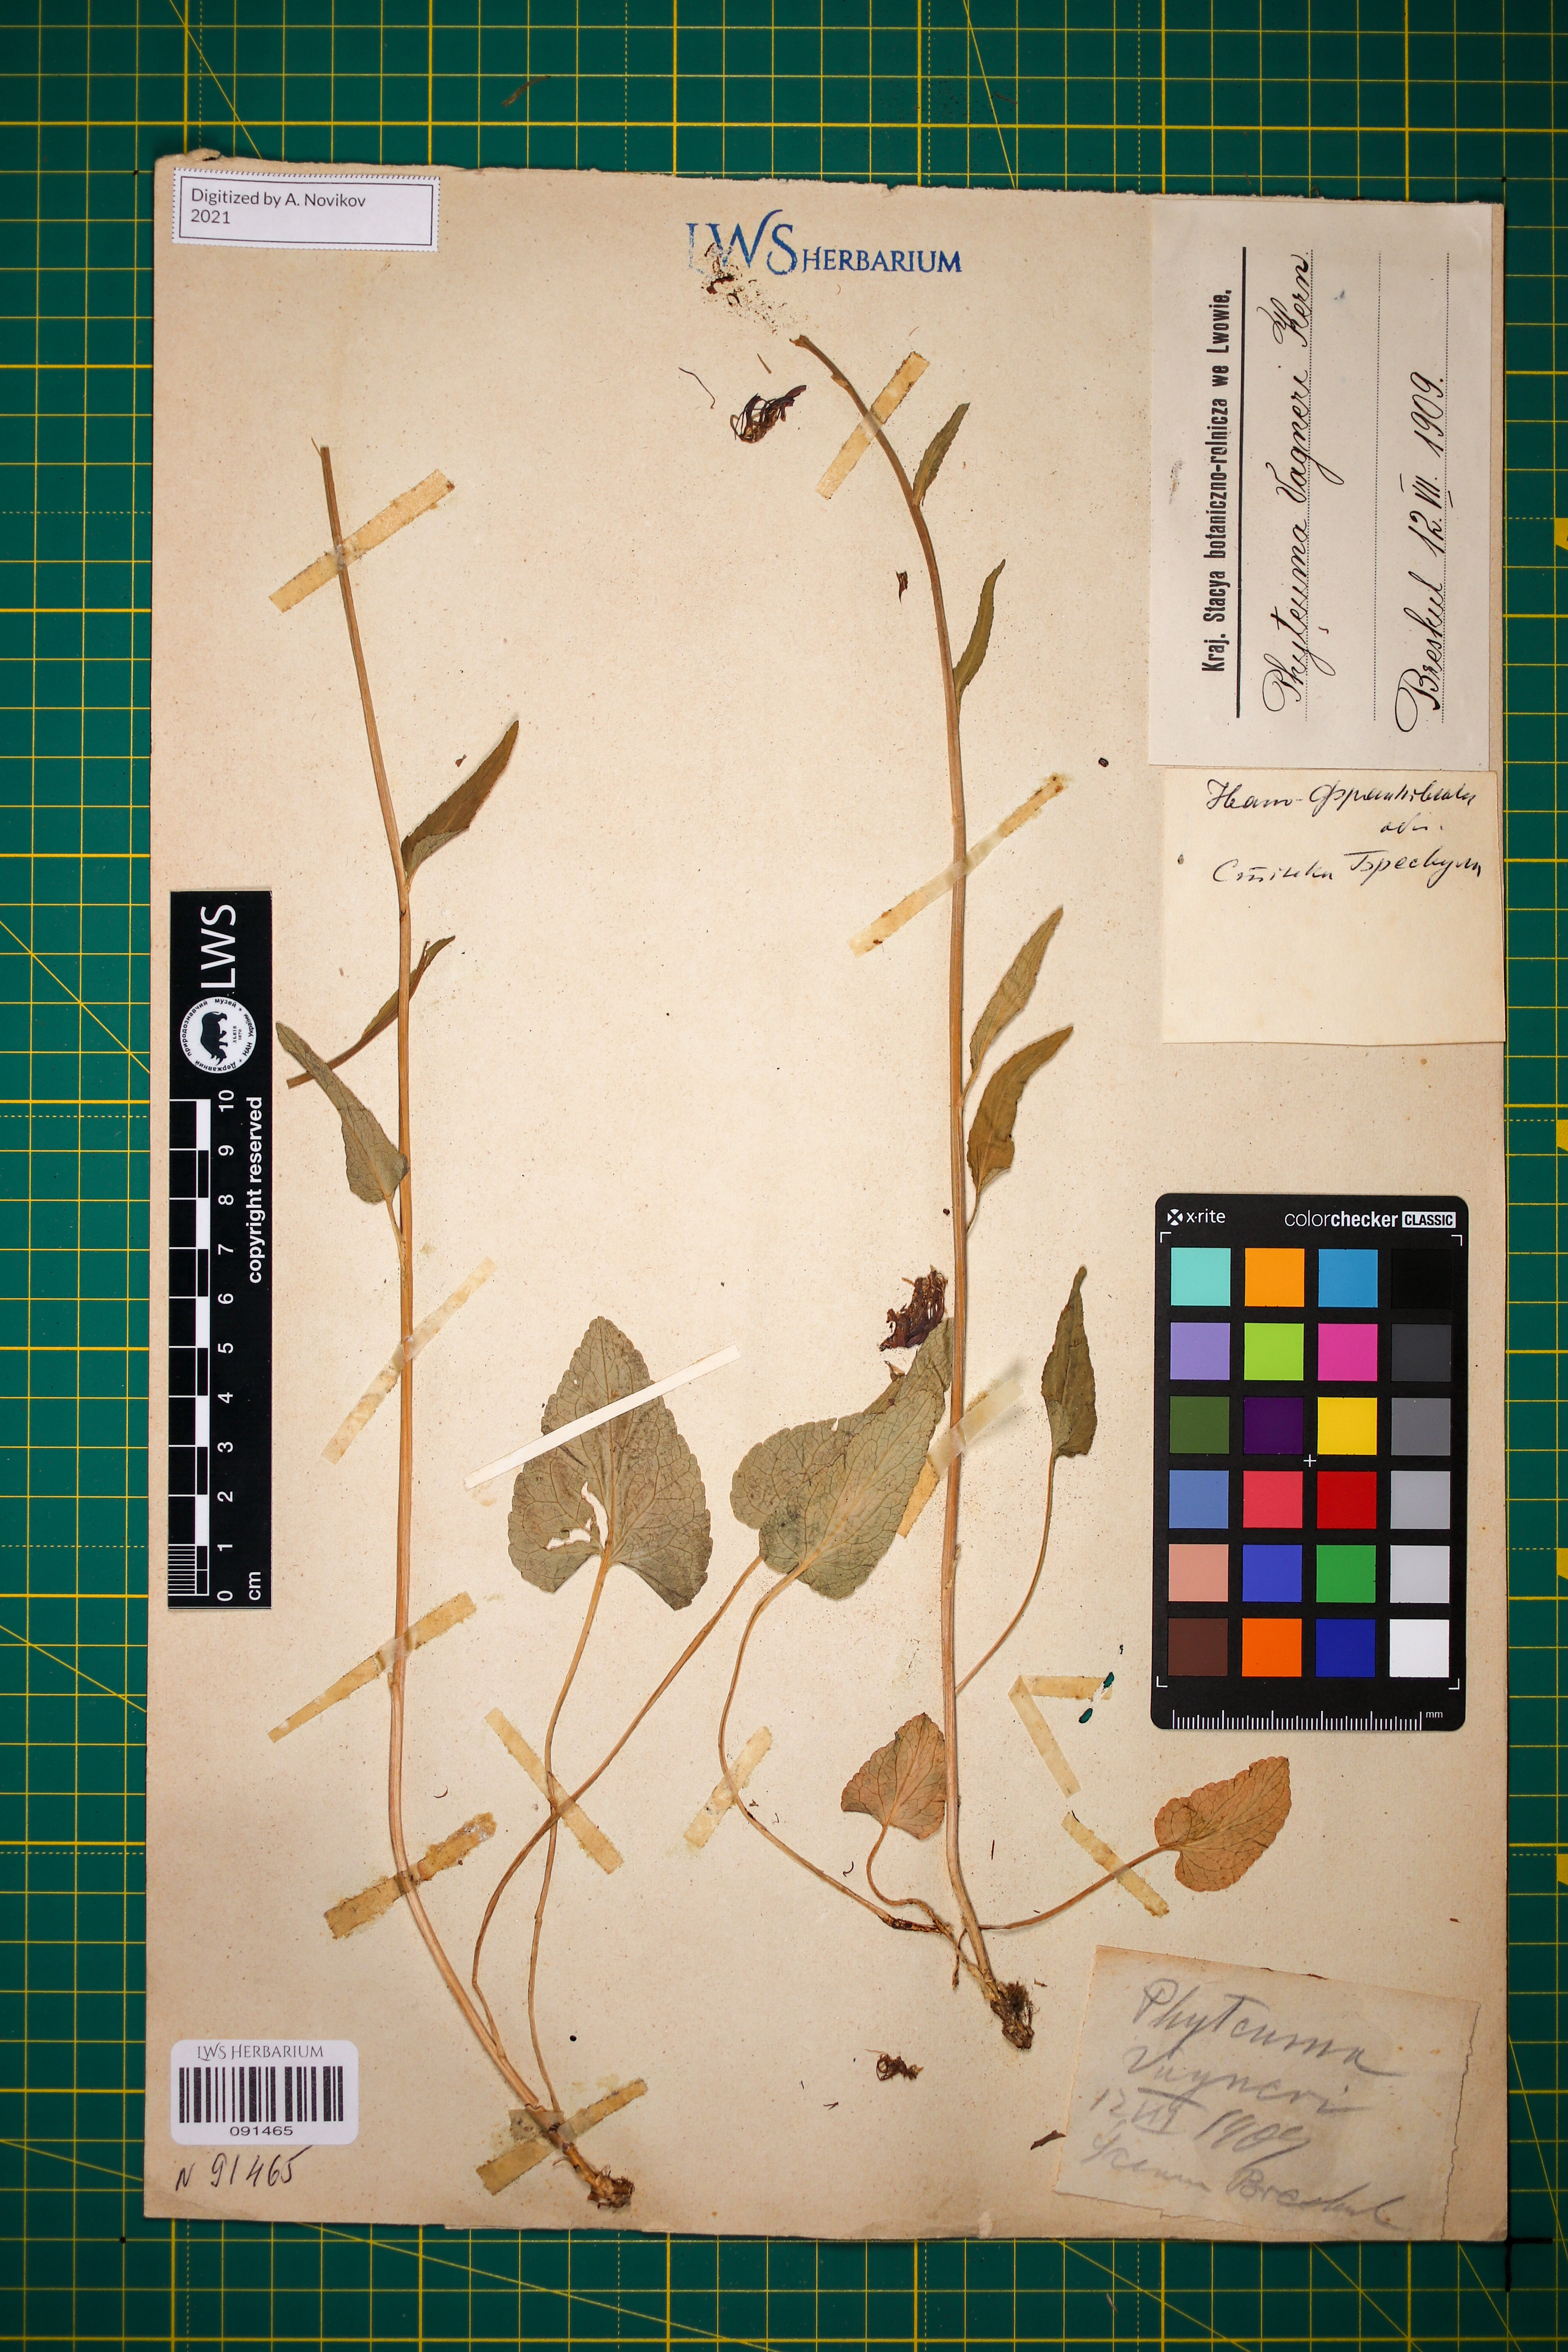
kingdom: Plantae
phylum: Tracheophyta
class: Magnoliopsida
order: Asterales
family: Campanulaceae
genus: Phyteuma
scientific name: Phyteuma vagneri
